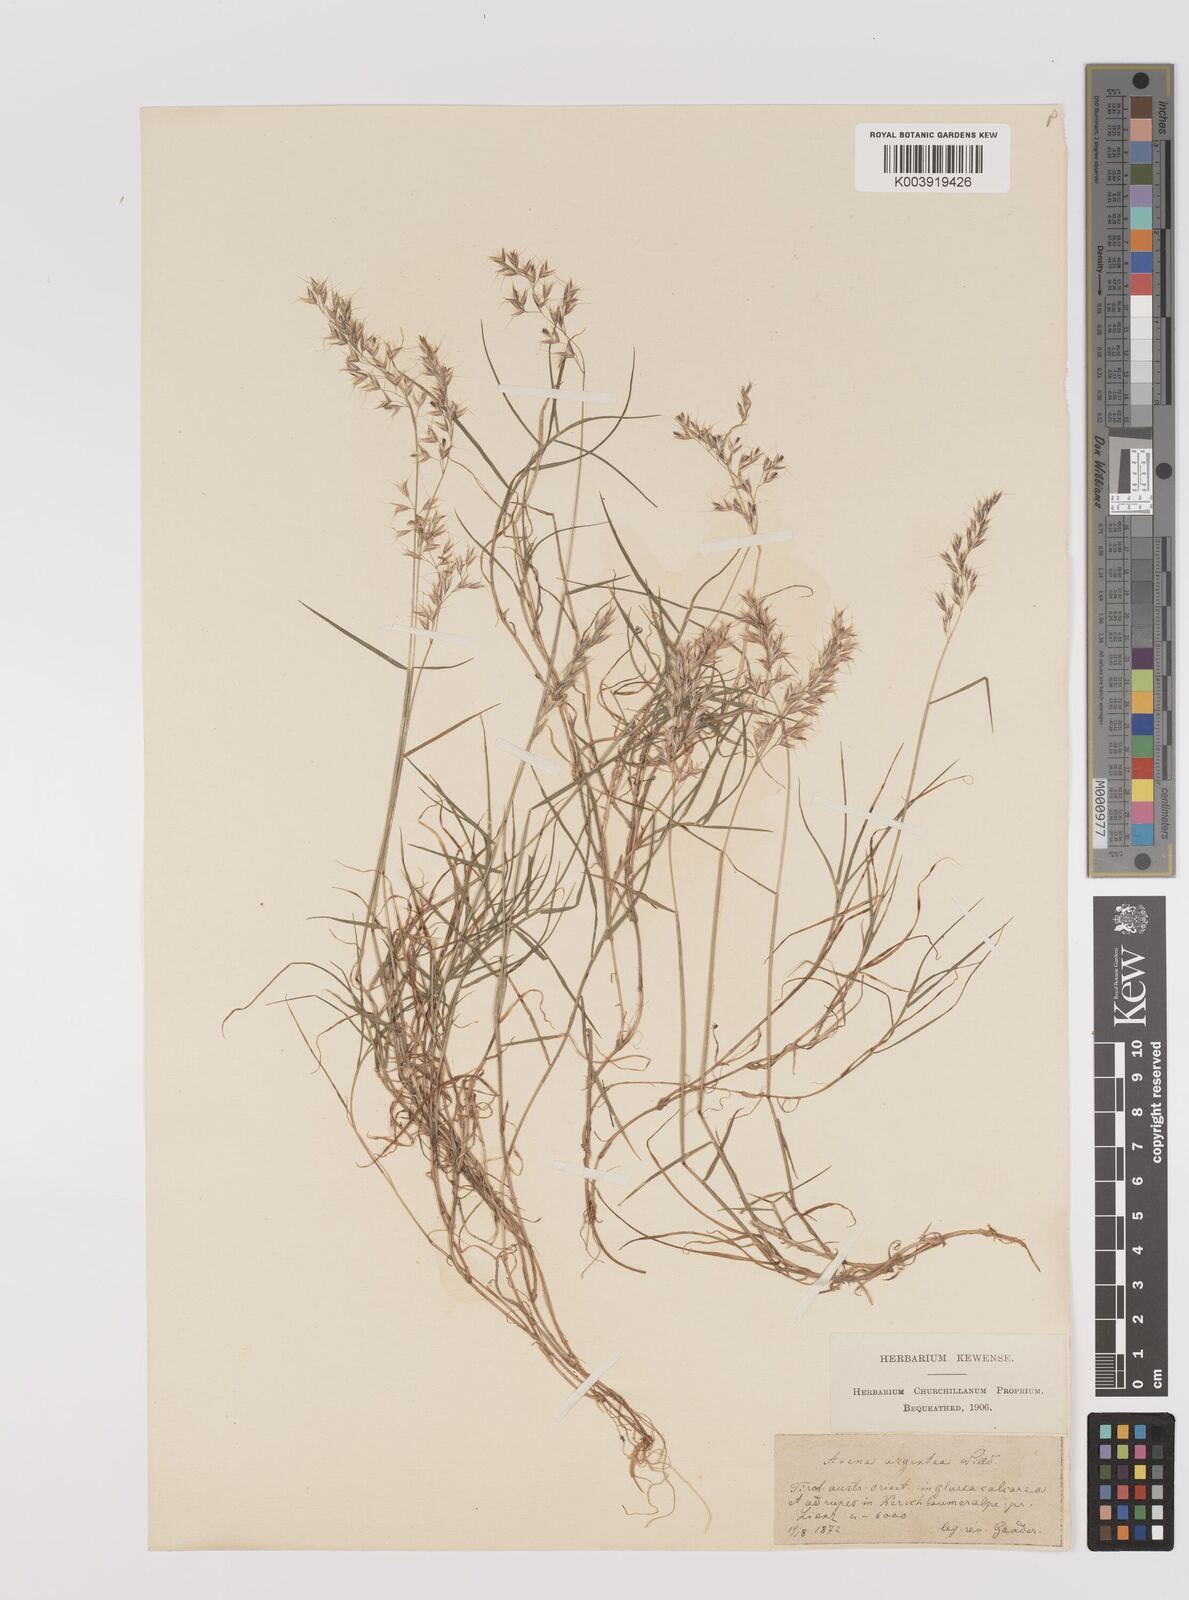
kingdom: Plantae
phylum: Tracheophyta
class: Liliopsida
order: Poales
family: Poaceae
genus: Trisetum
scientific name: Trisetum argenteum
